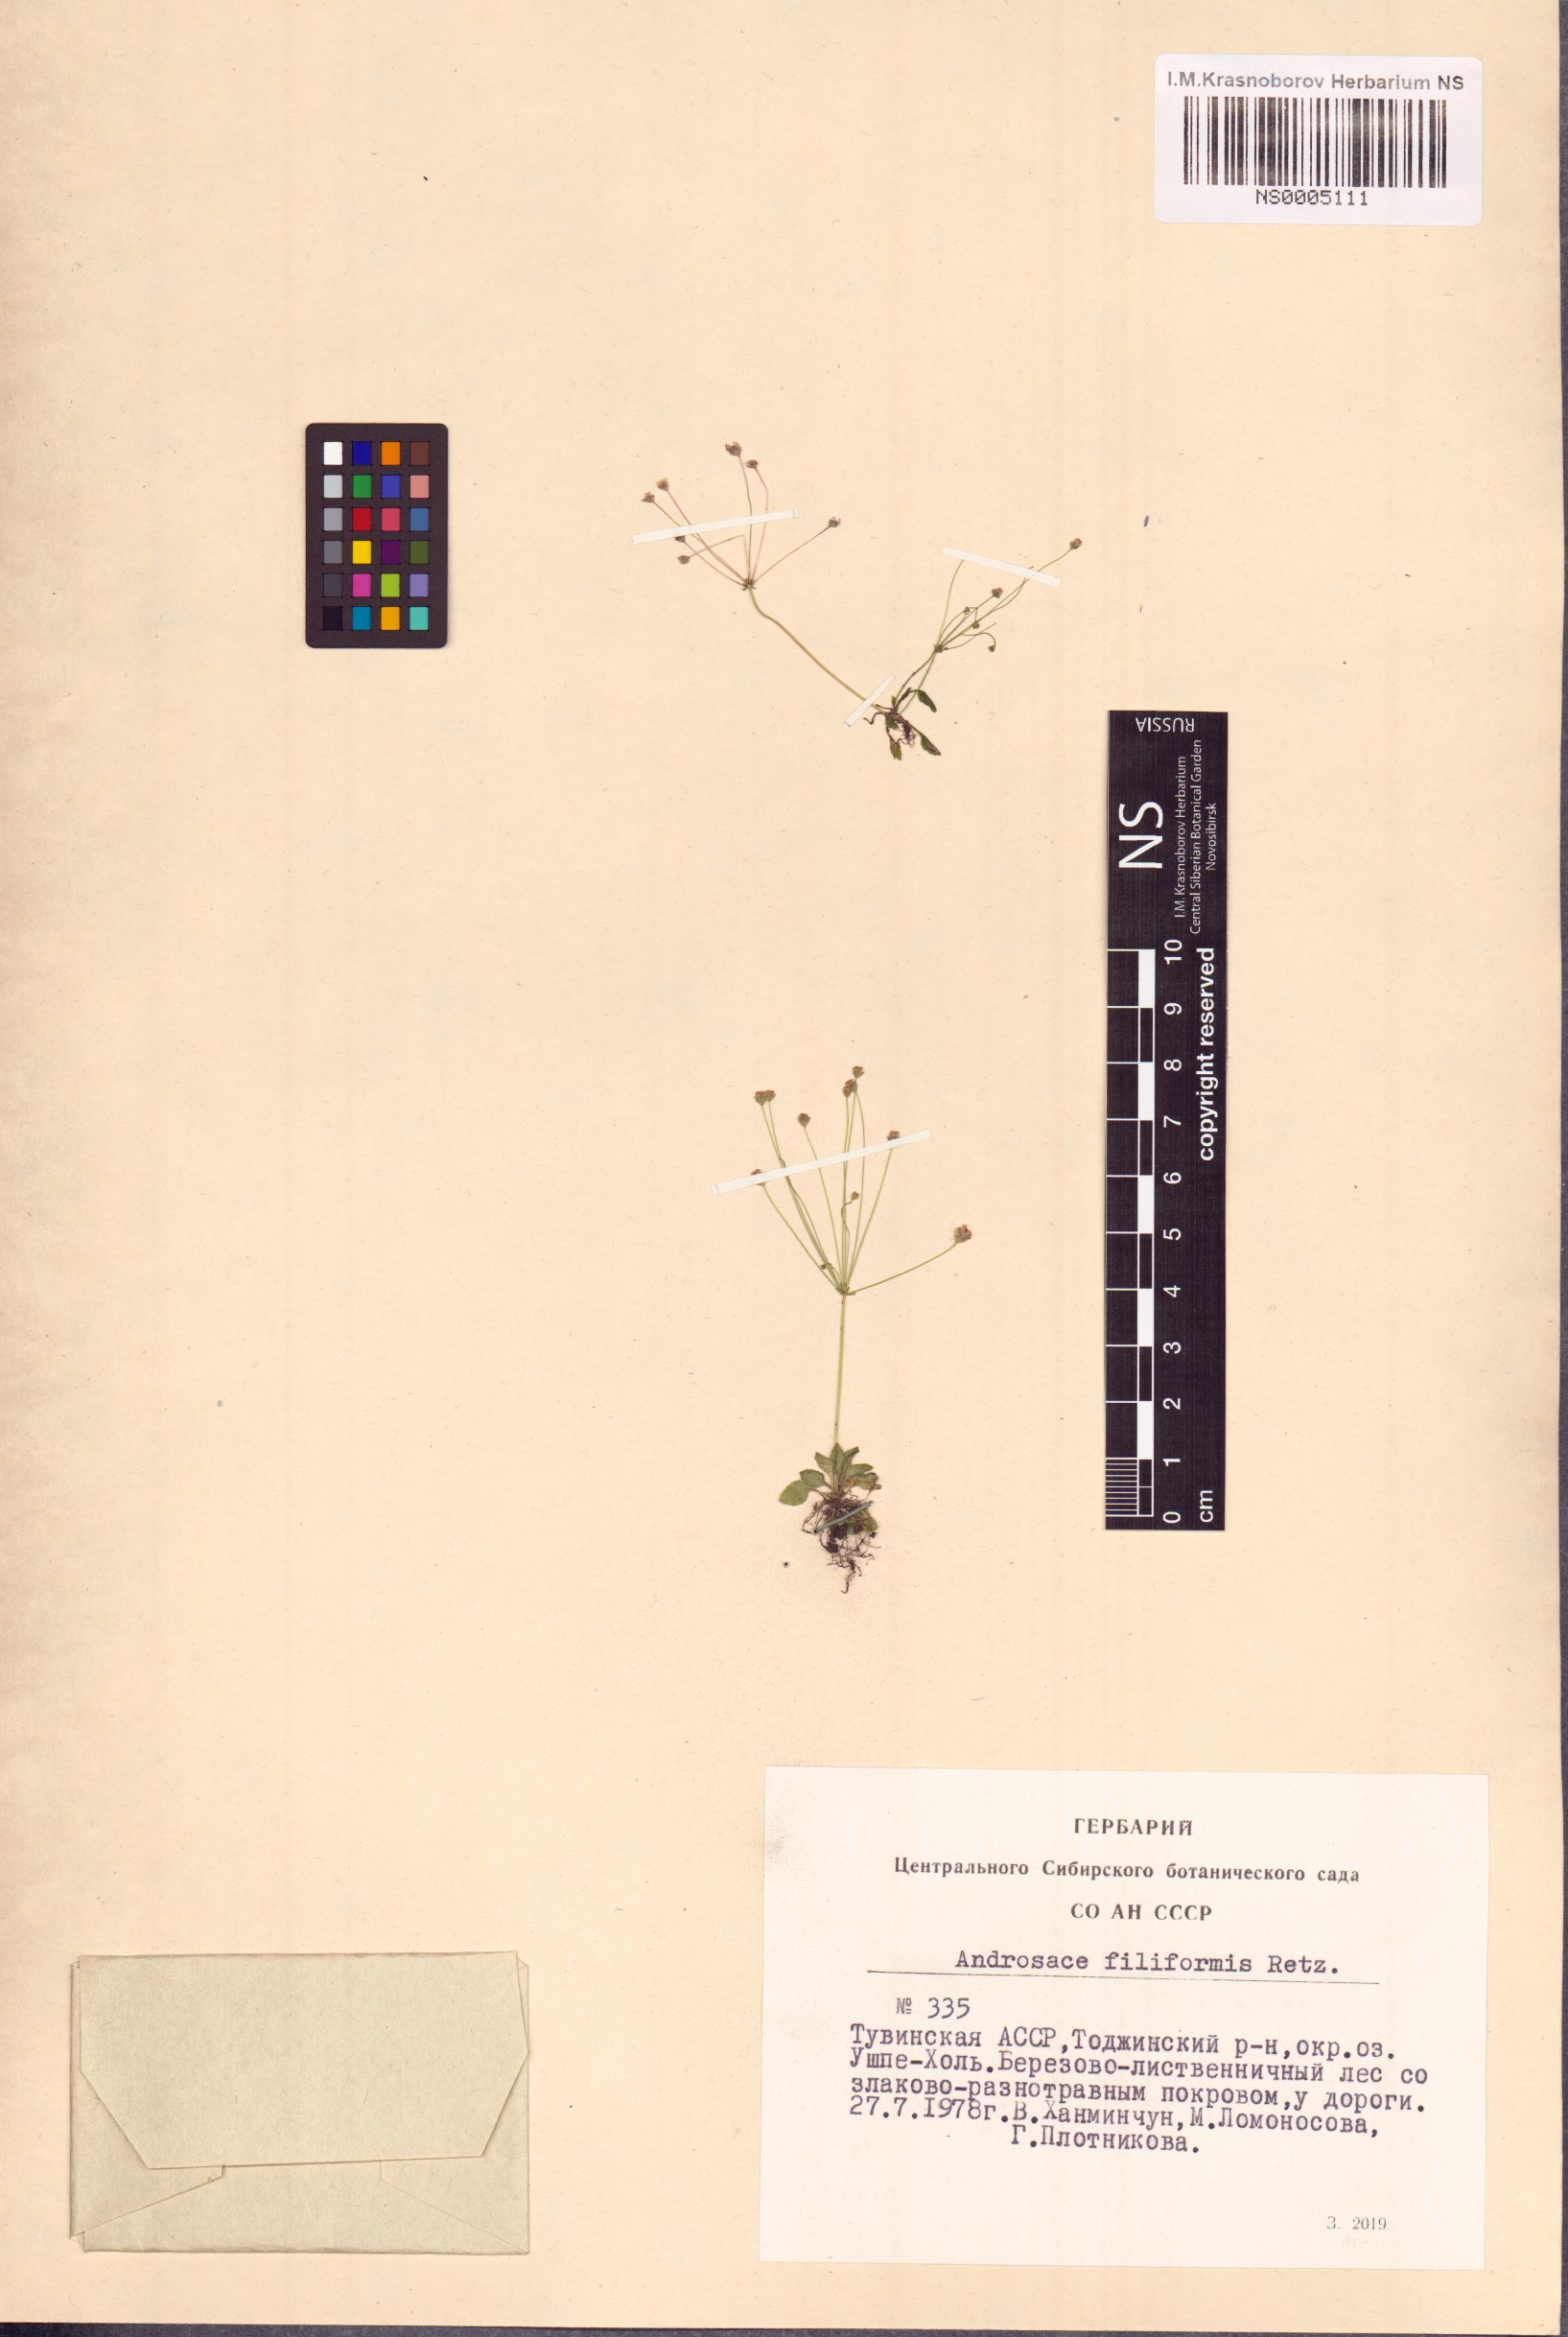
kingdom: Plantae
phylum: Tracheophyta
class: Magnoliopsida
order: Ericales
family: Primulaceae
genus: Androsace
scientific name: Androsace filiformis
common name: Filiform rock jasmine
